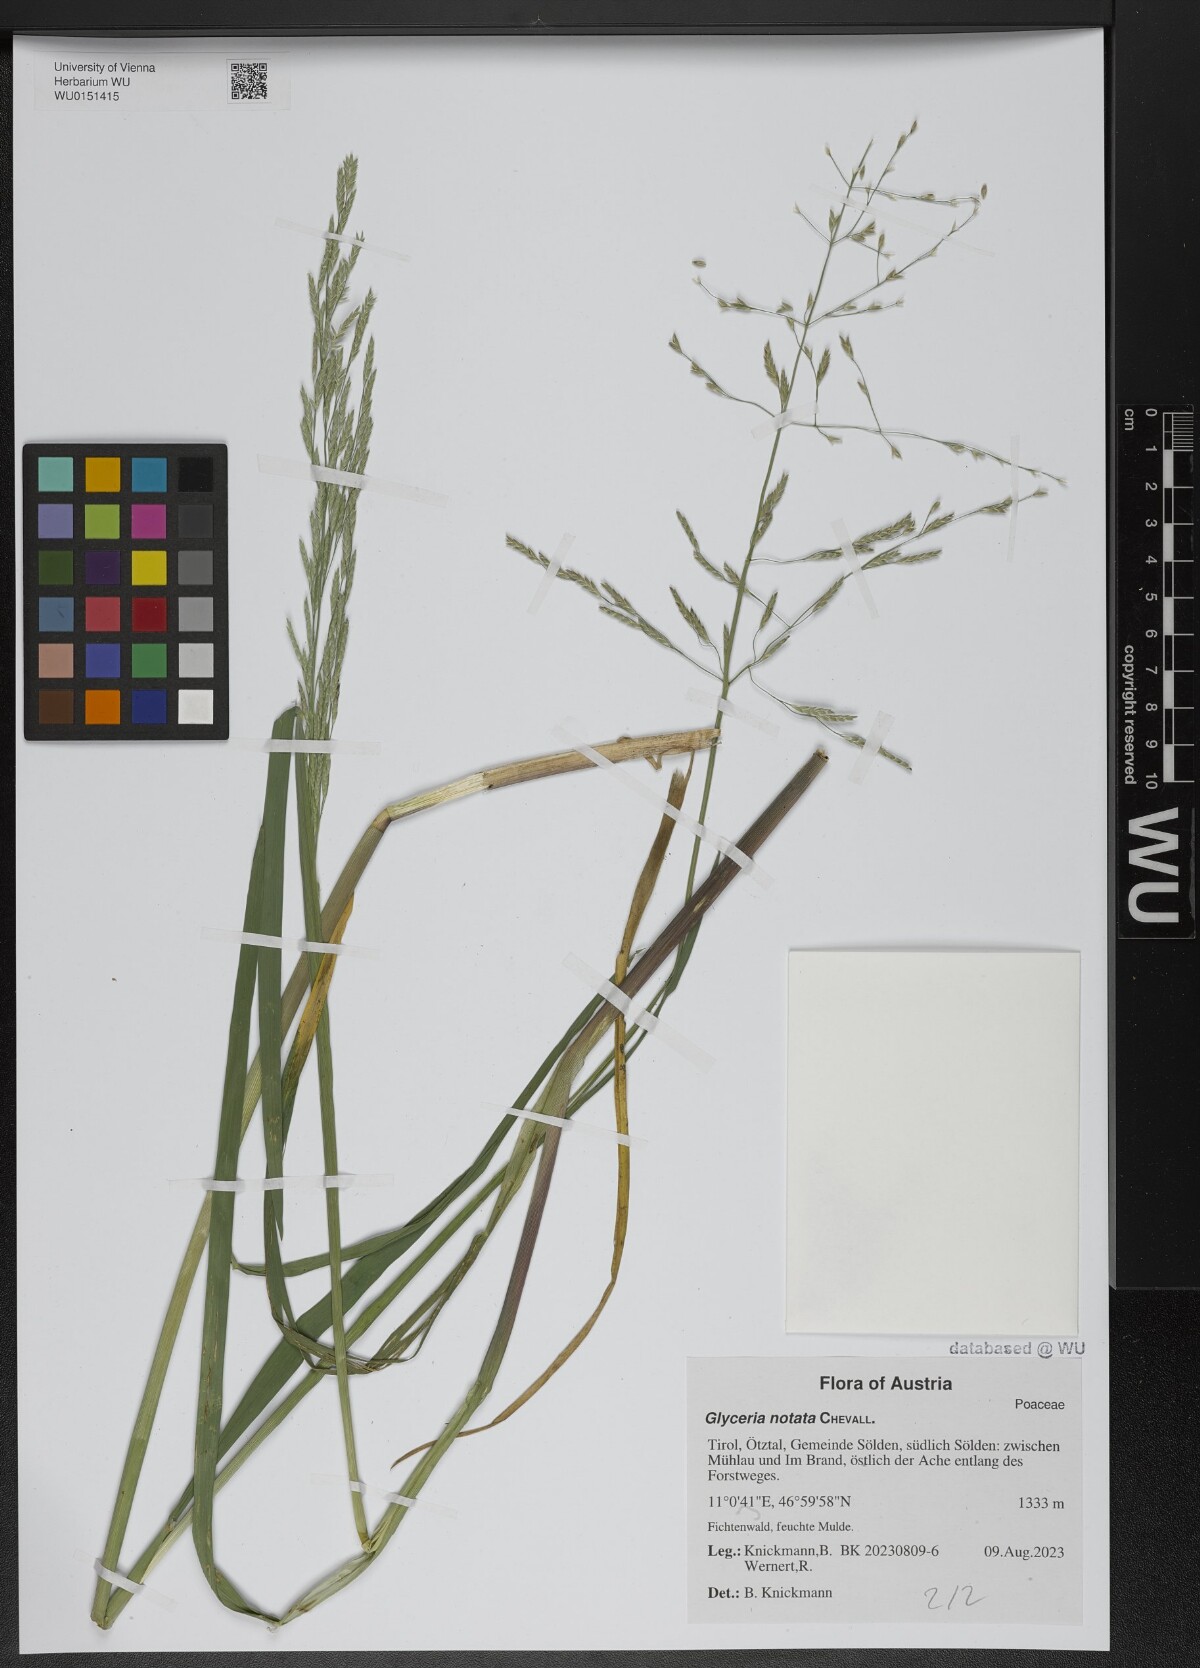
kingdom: Plantae
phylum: Tracheophyta
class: Liliopsida
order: Poales
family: Poaceae
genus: Glyceria
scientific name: Glyceria notata
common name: Plicate sweet-grass
